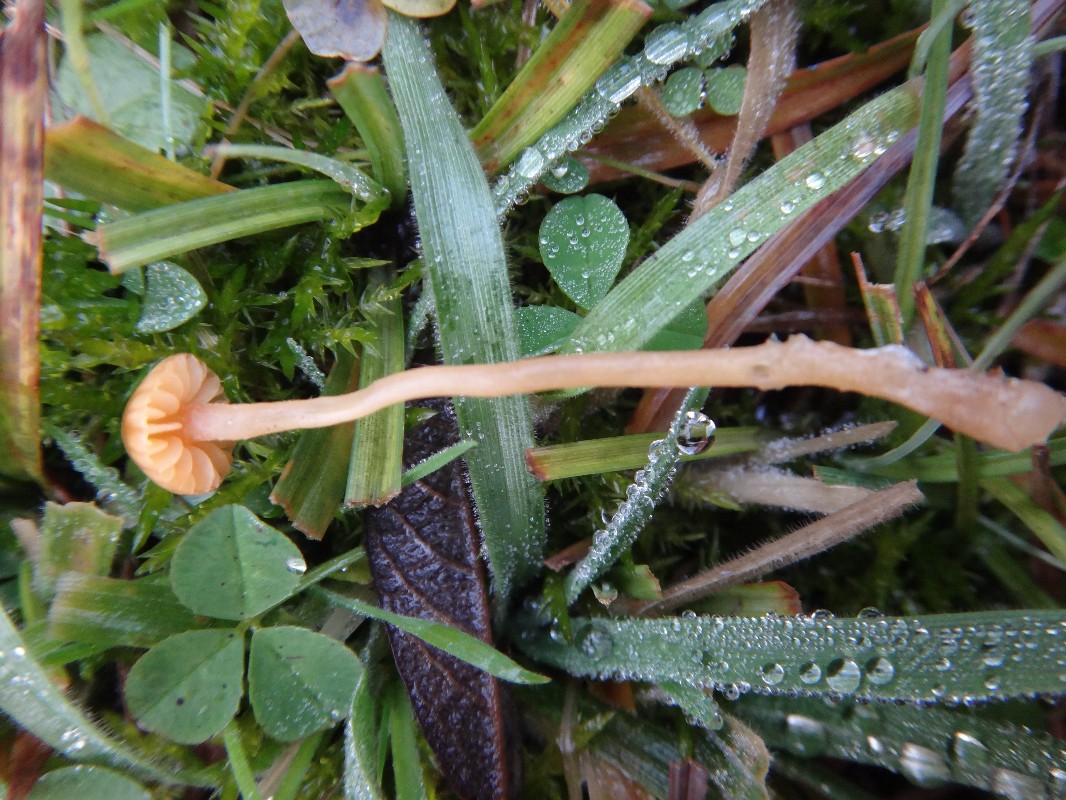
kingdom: Fungi
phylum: Basidiomycota
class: Agaricomycetes
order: Agaricales
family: Hymenogastraceae
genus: Galerina
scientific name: Galerina subclavata
